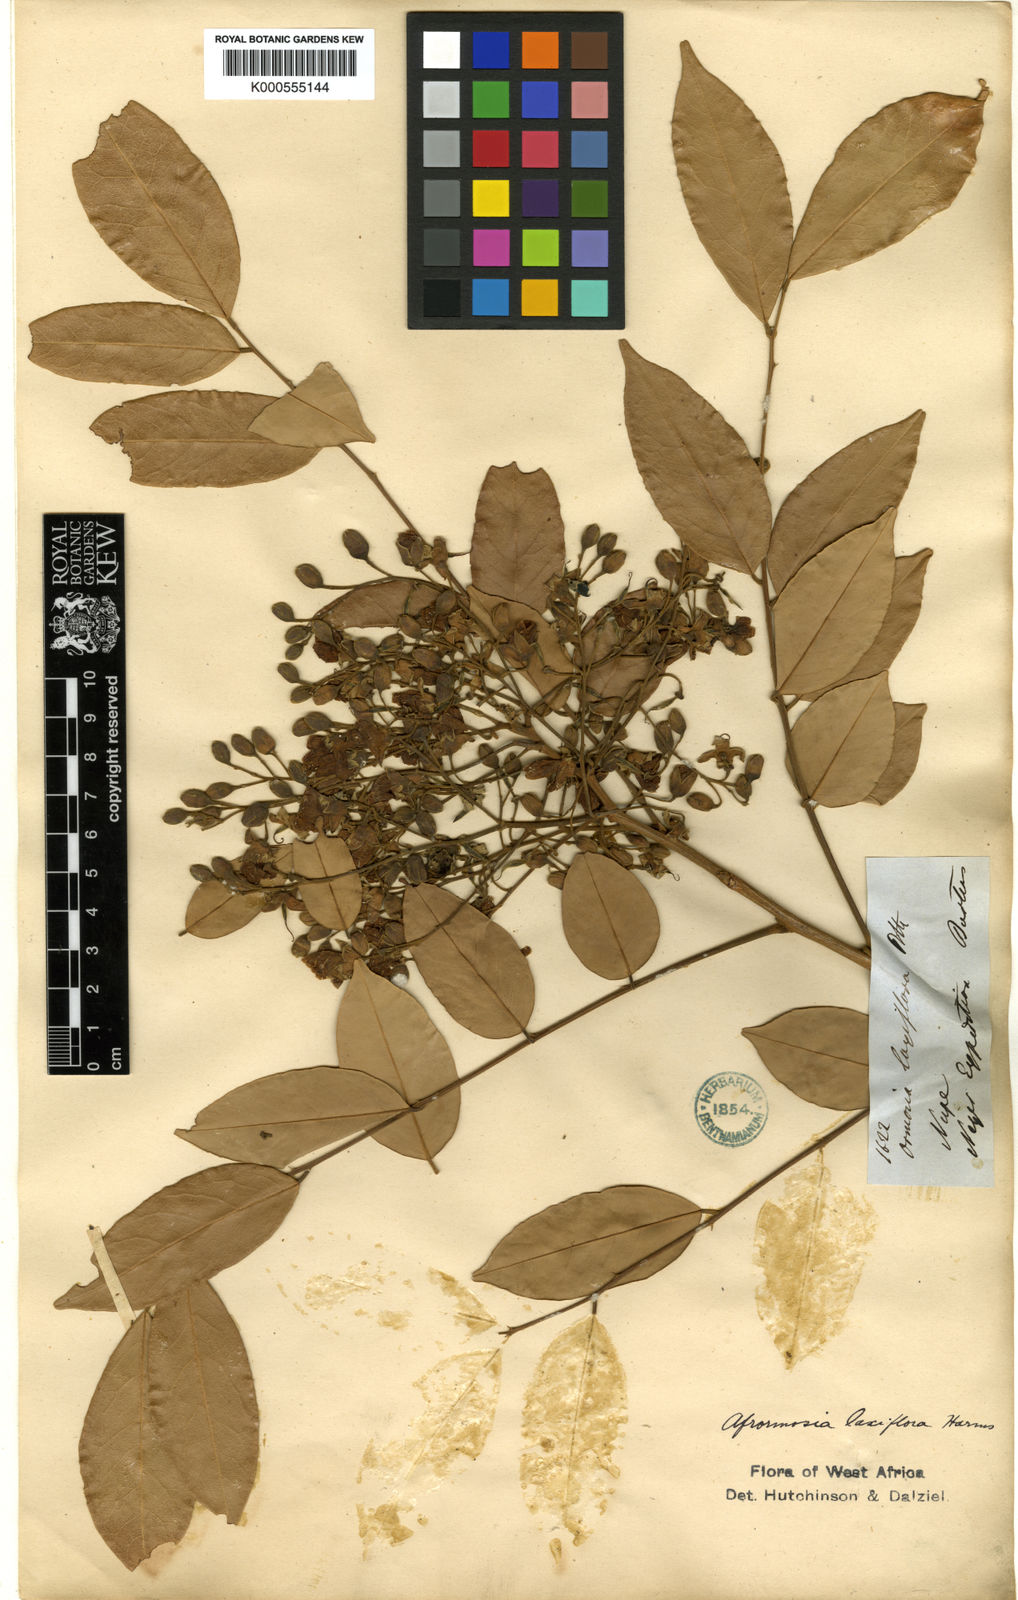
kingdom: Plantae
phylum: Tracheophyta
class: Magnoliopsida
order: Fabales
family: Fabaceae
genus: Pericopsis
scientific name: Pericopsis laxiflora
